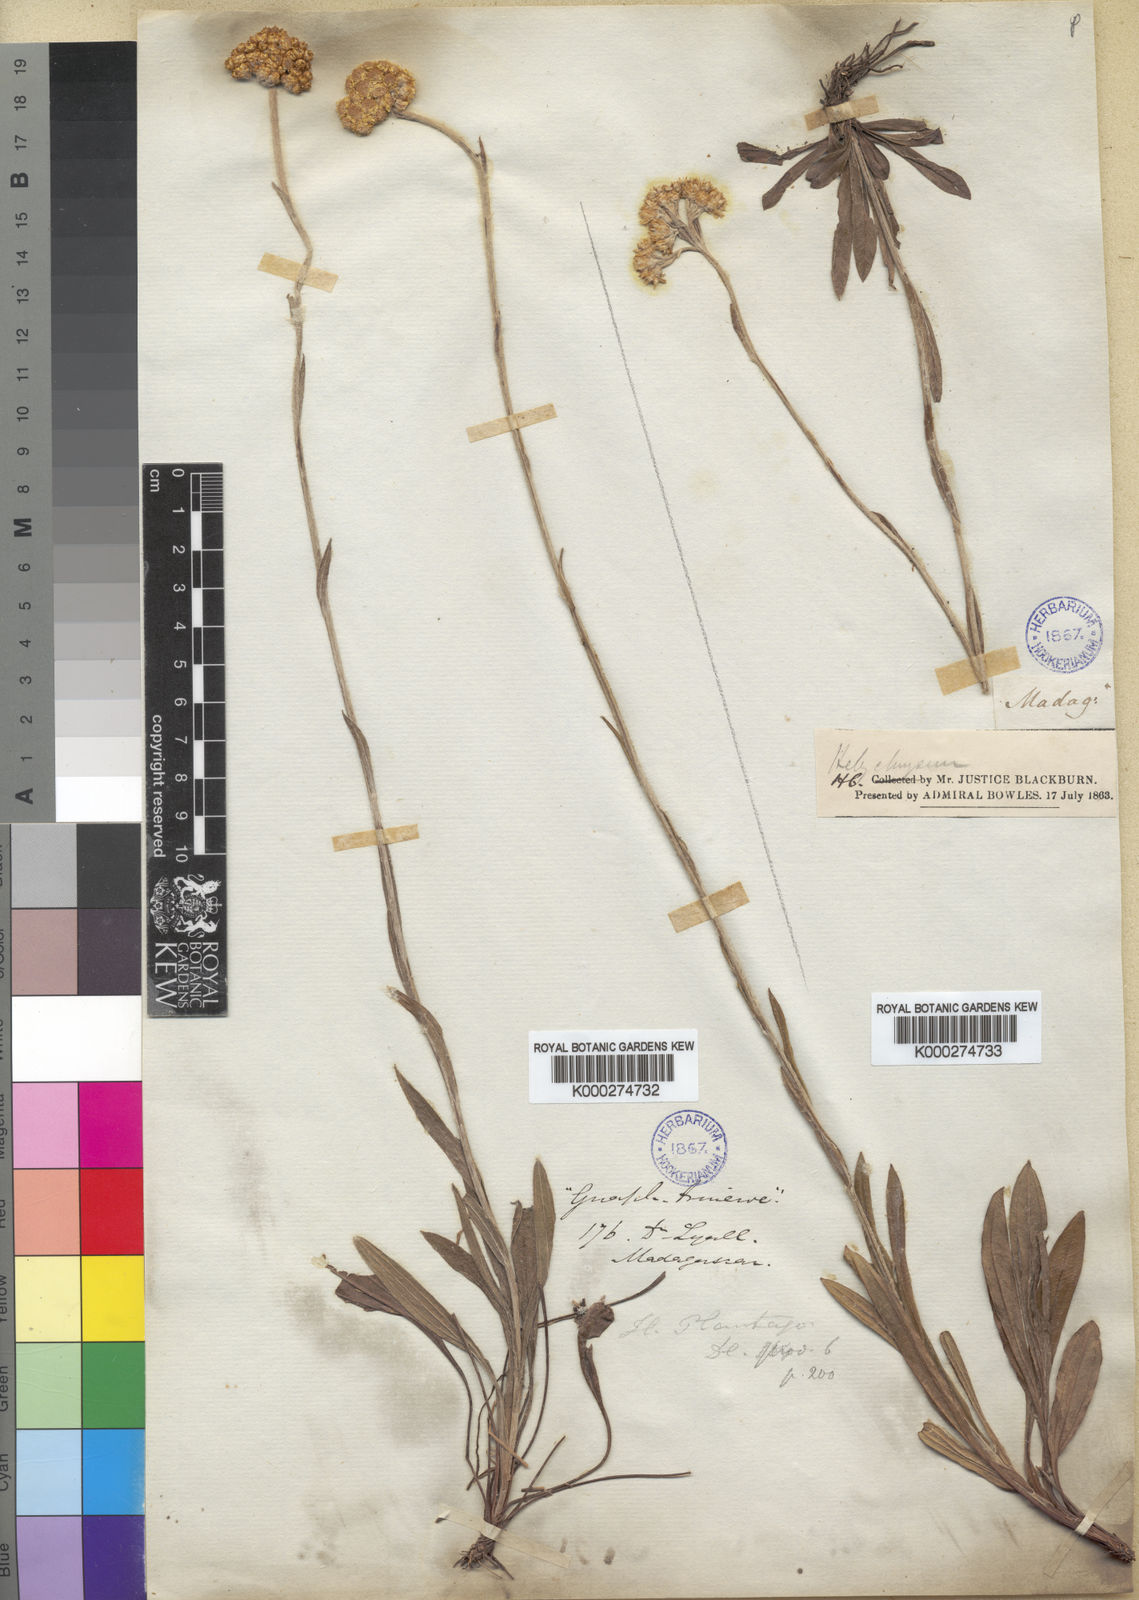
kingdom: Plantae
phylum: Tracheophyta
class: Magnoliopsida
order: Asterales
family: Asteraceae
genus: Helichrysum
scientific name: Helichrysum plantago
